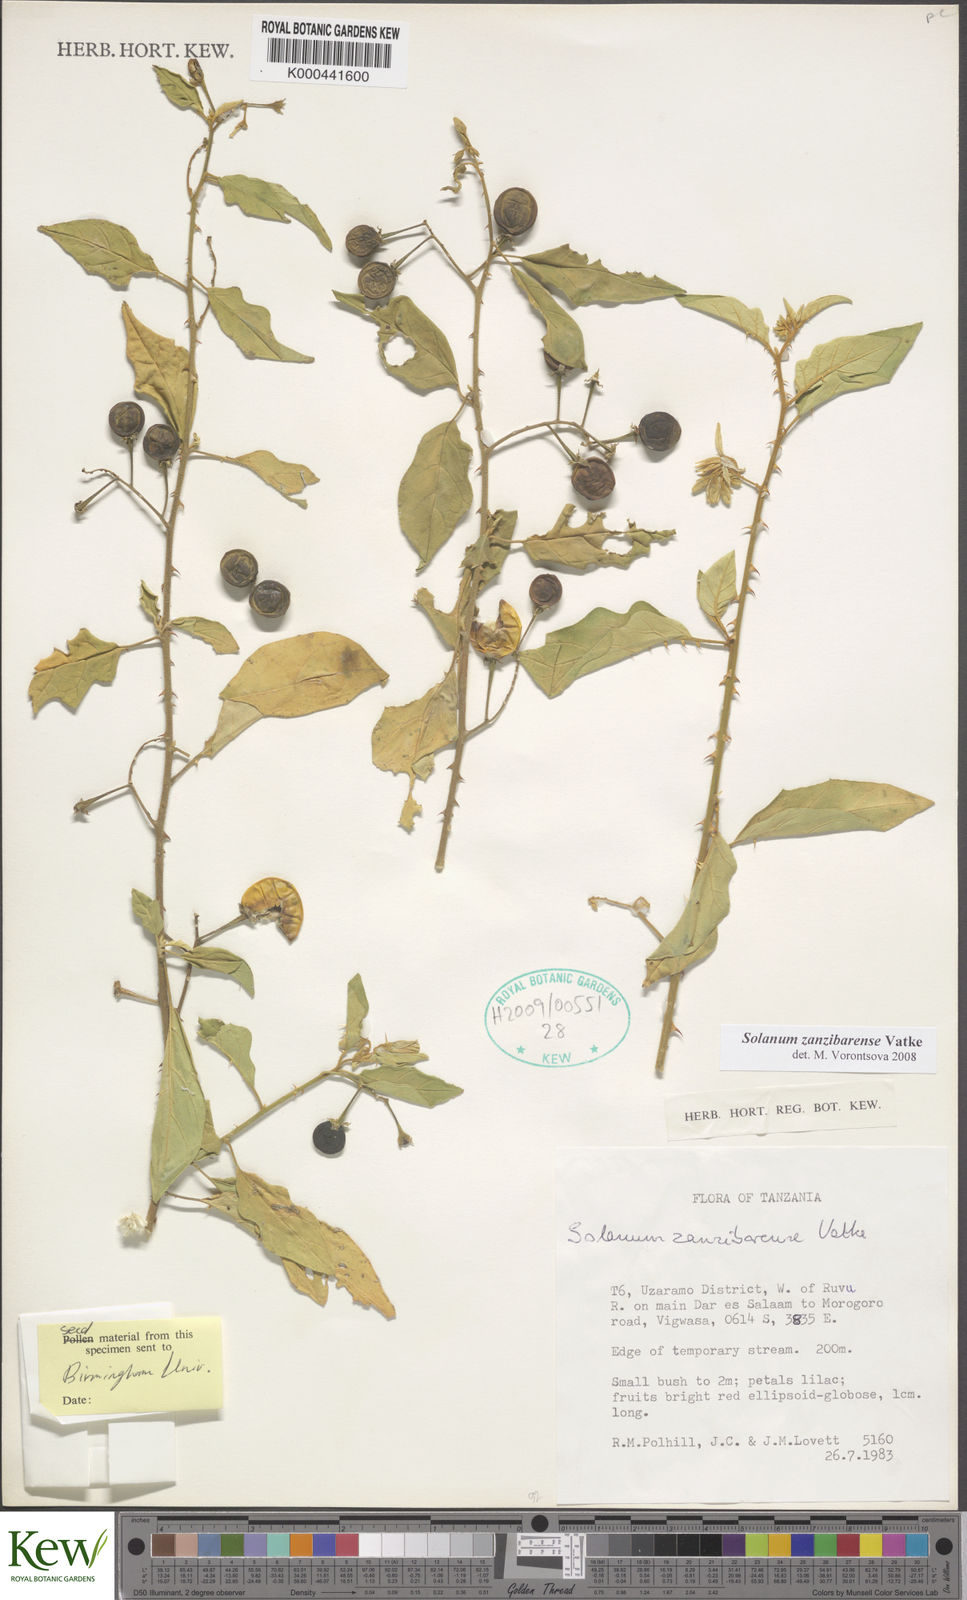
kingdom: Plantae
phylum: Tracheophyta
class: Magnoliopsida
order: Solanales
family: Solanaceae
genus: Solanum
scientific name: Solanum zanzibarense
